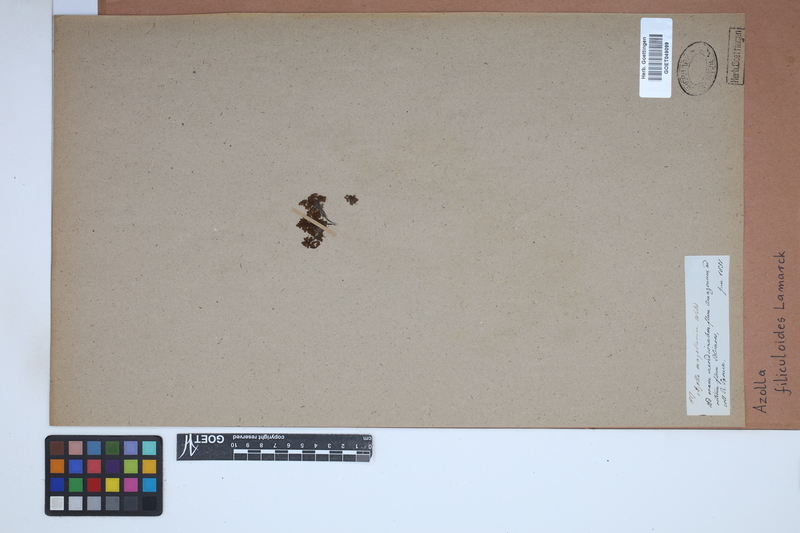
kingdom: Plantae
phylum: Tracheophyta
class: Polypodiopsida
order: Salviniales
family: Salviniaceae
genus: Azolla
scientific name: Azolla filiculoides
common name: Water fern
